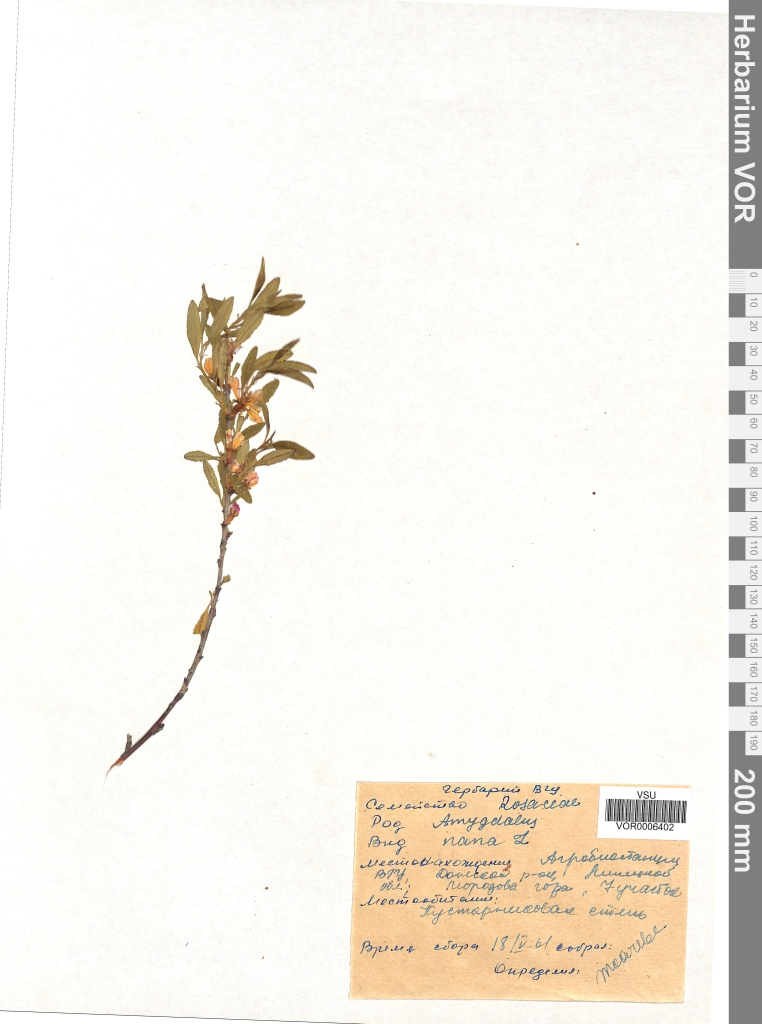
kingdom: Plantae
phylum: Tracheophyta
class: Magnoliopsida
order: Rosales
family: Rosaceae
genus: Prunus
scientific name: Prunus tenella
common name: Dwarf russian almond
